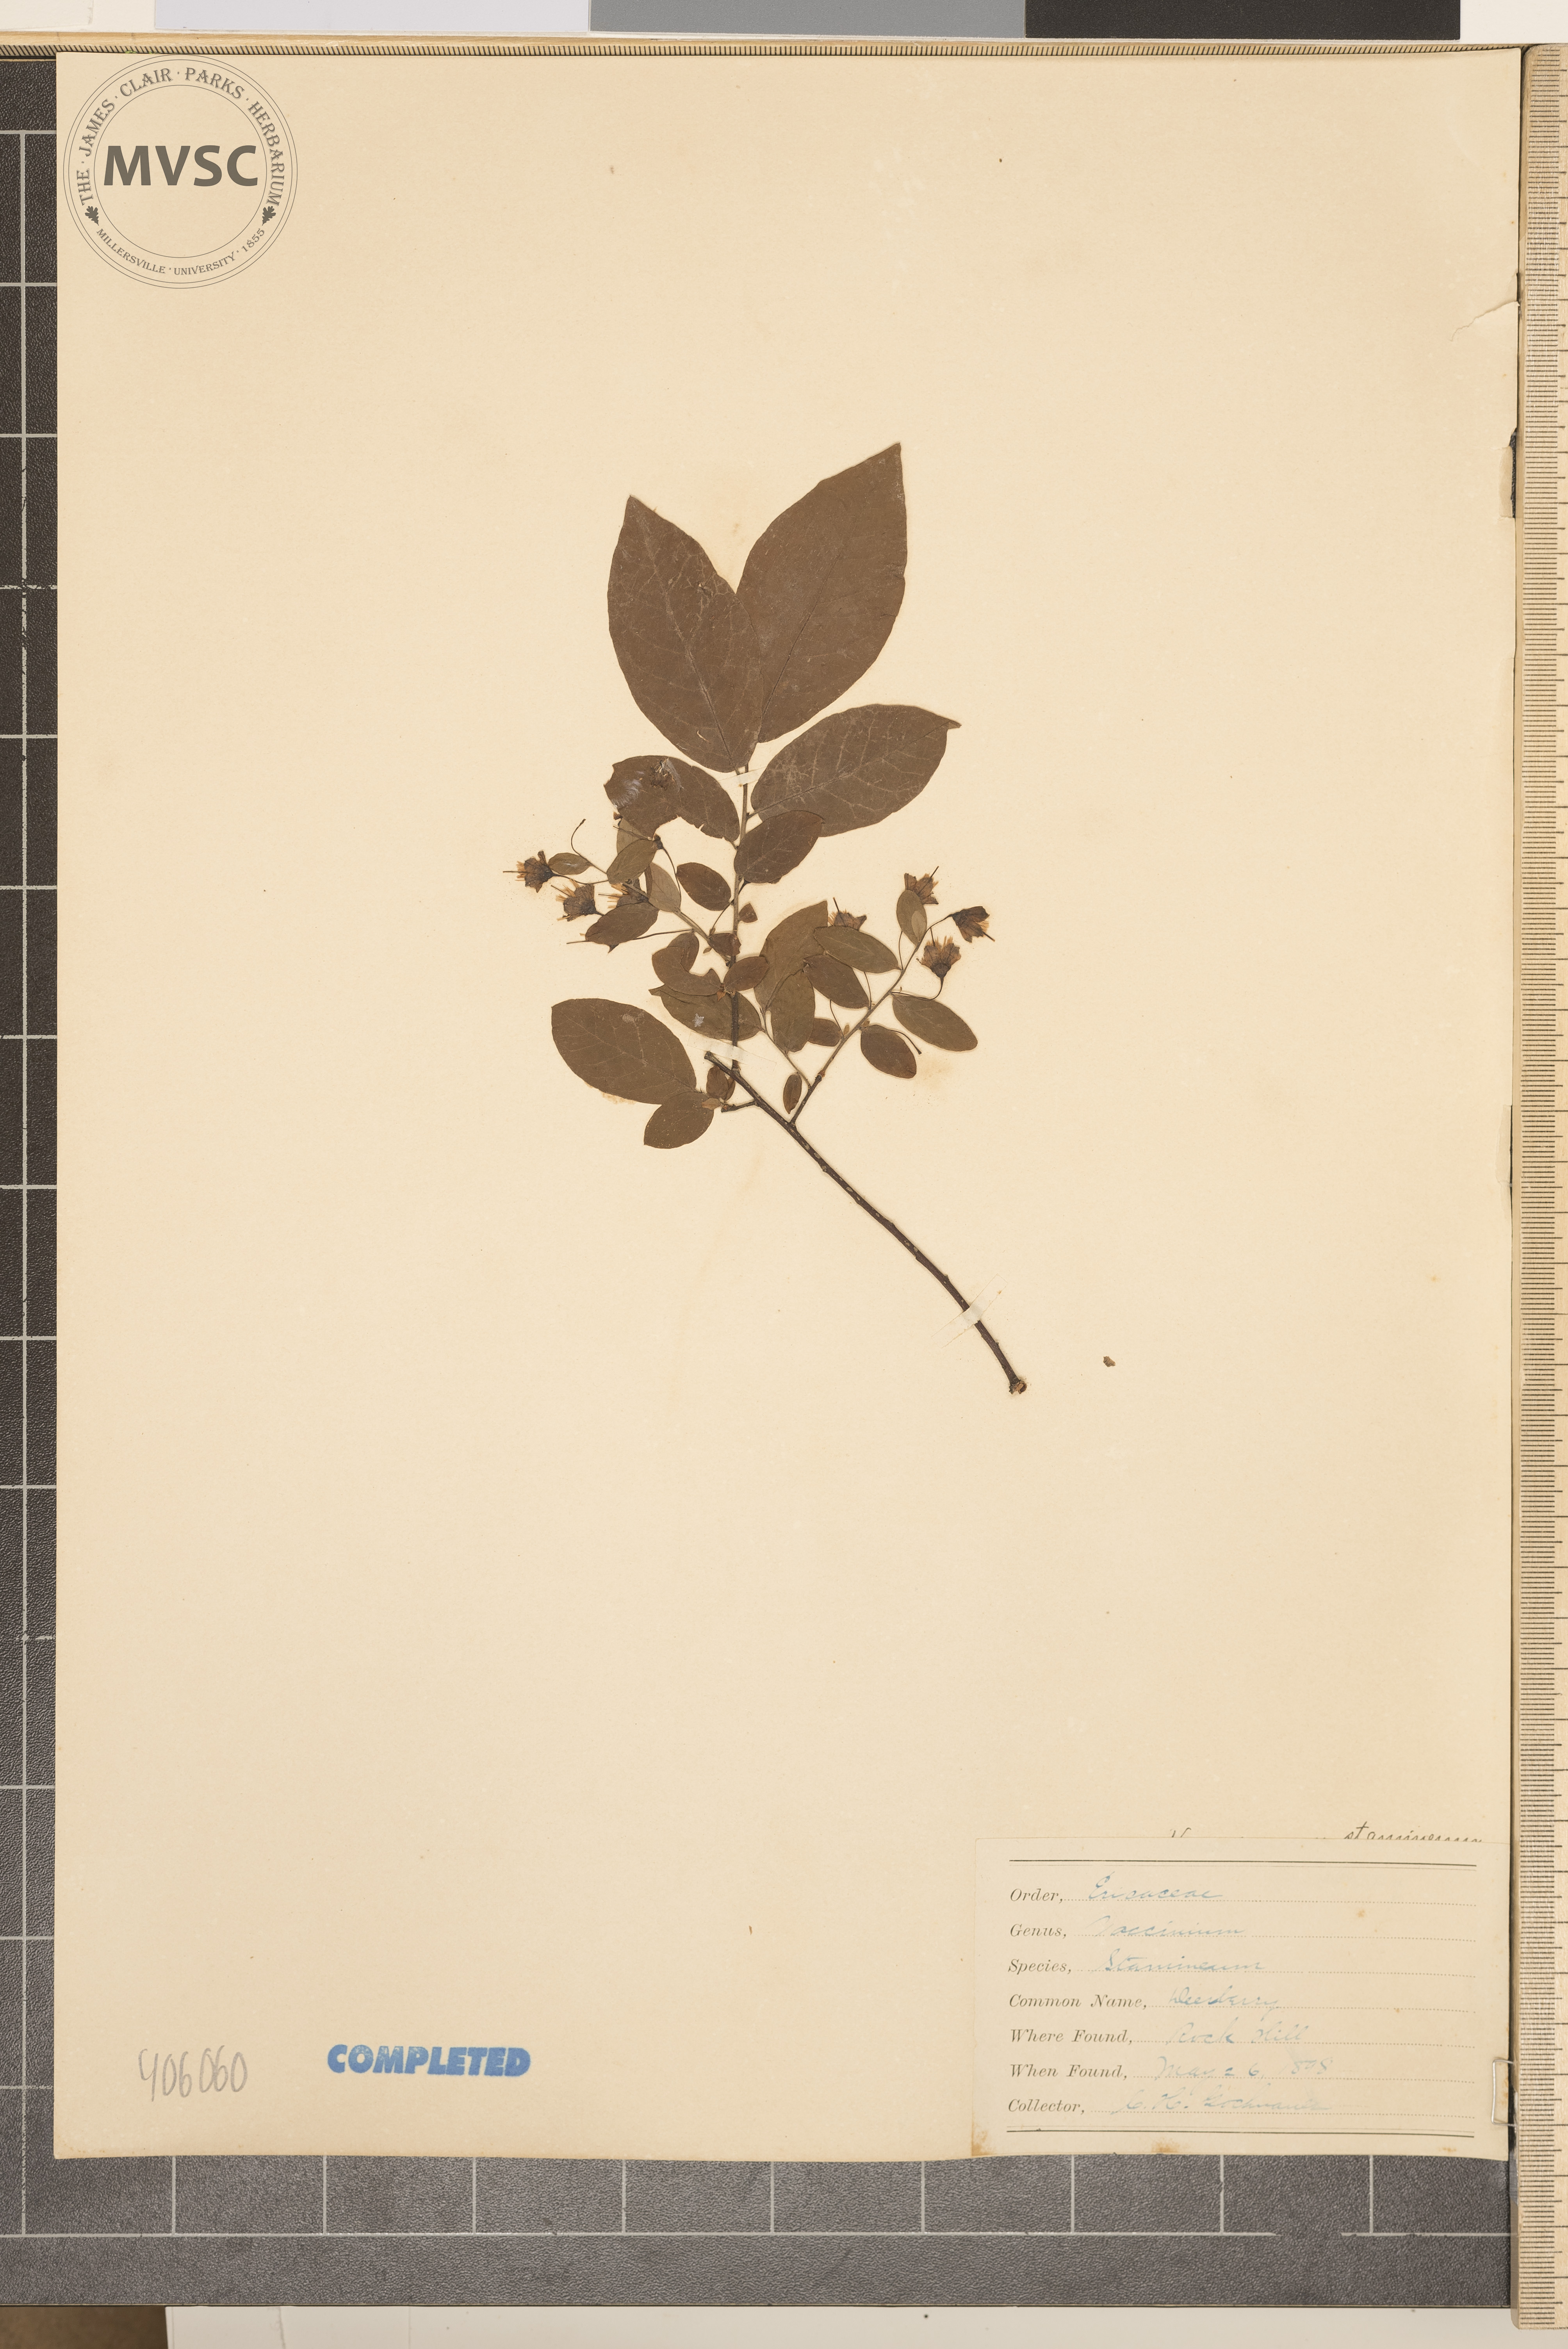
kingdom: Plantae
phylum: Tracheophyta
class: Magnoliopsida
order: Ericales
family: Ericaceae
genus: Vaccinium
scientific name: Vaccinium stamineum
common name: Deerberry
